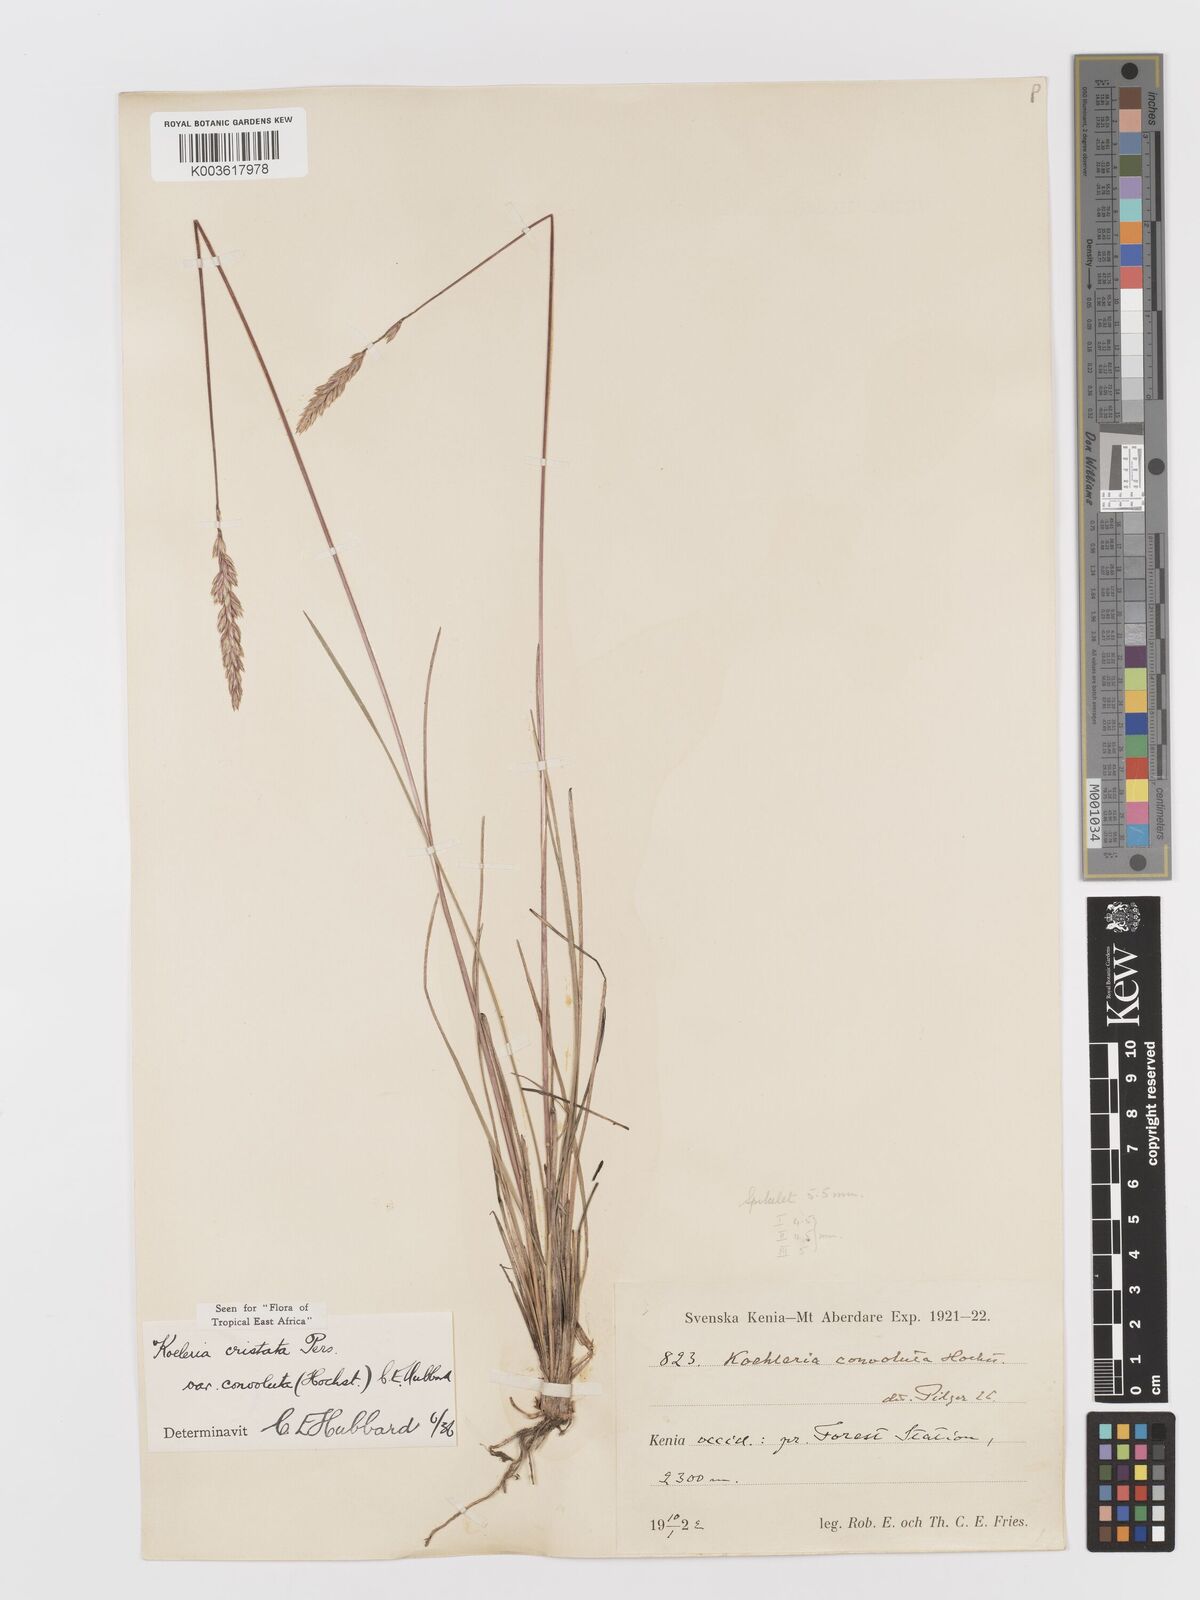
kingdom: Plantae
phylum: Tracheophyta
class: Liliopsida
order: Poales
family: Poaceae
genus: Koeleria
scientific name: Koeleria capensis
